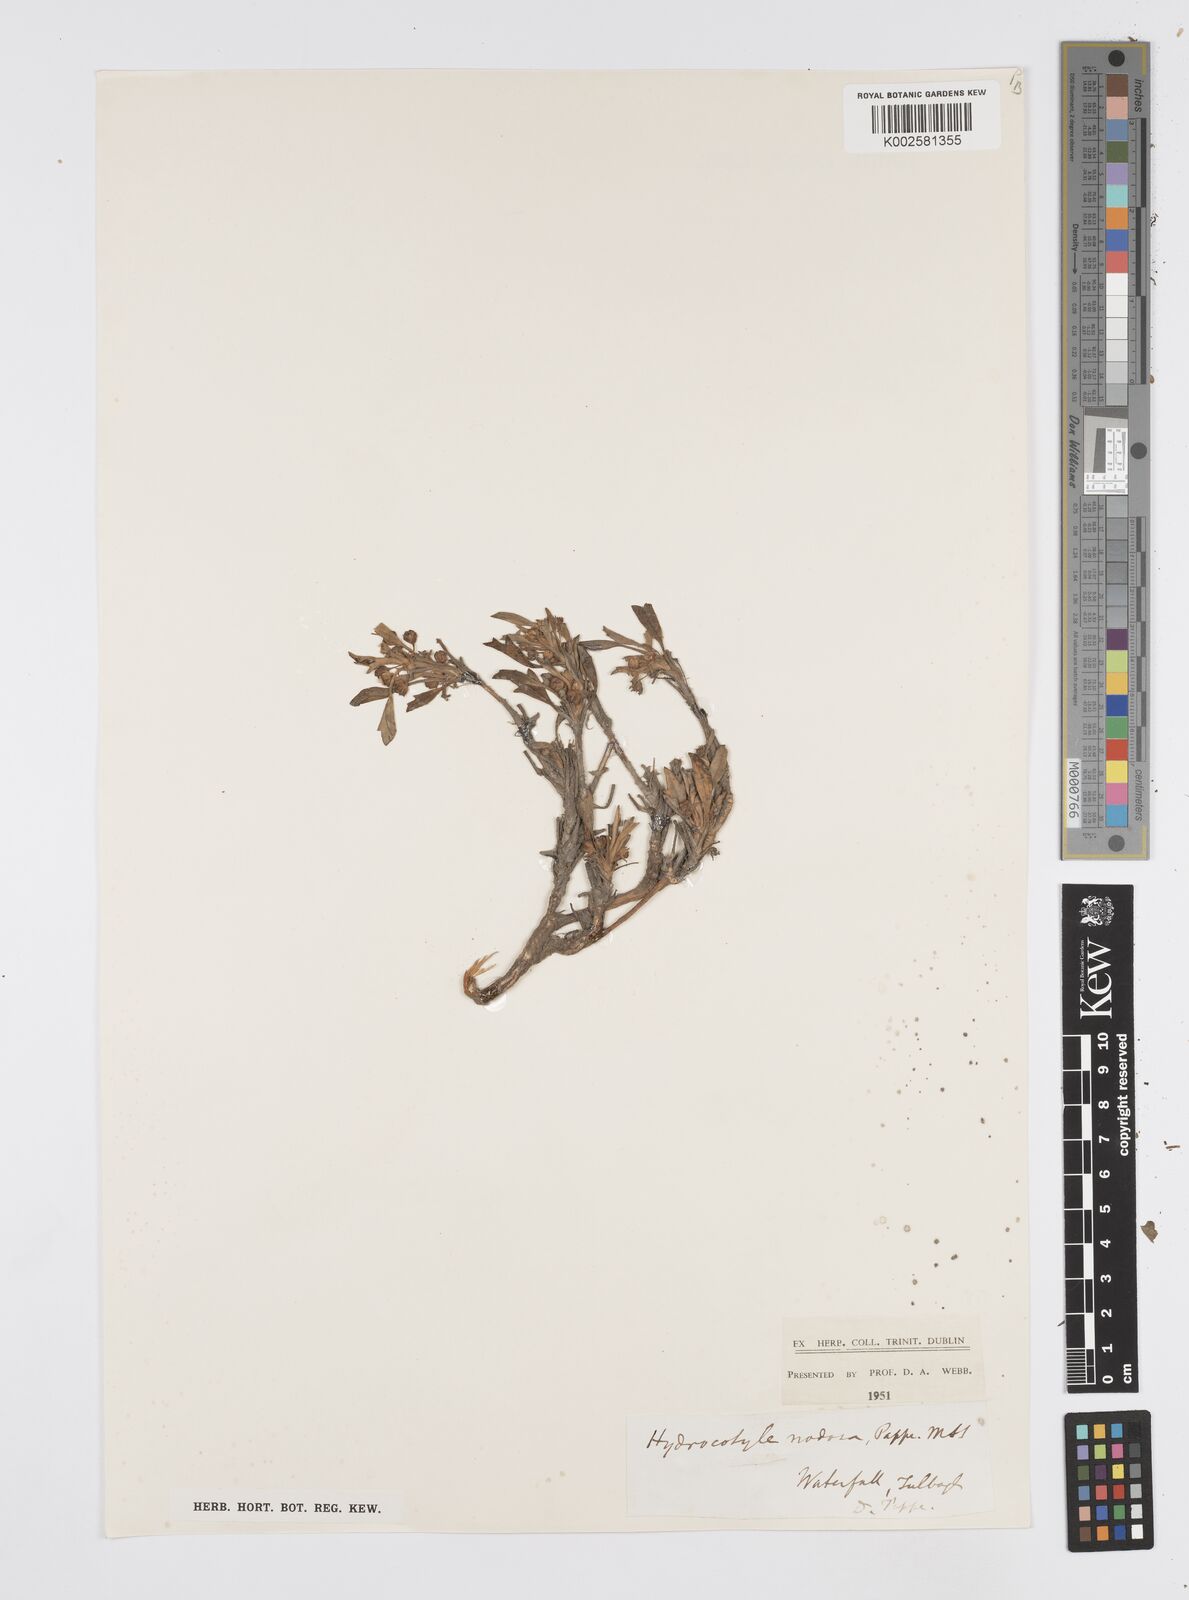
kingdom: Plantae
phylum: Tracheophyta
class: Magnoliopsida
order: Apiales
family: Apiaceae
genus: Centella
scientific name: Centella
